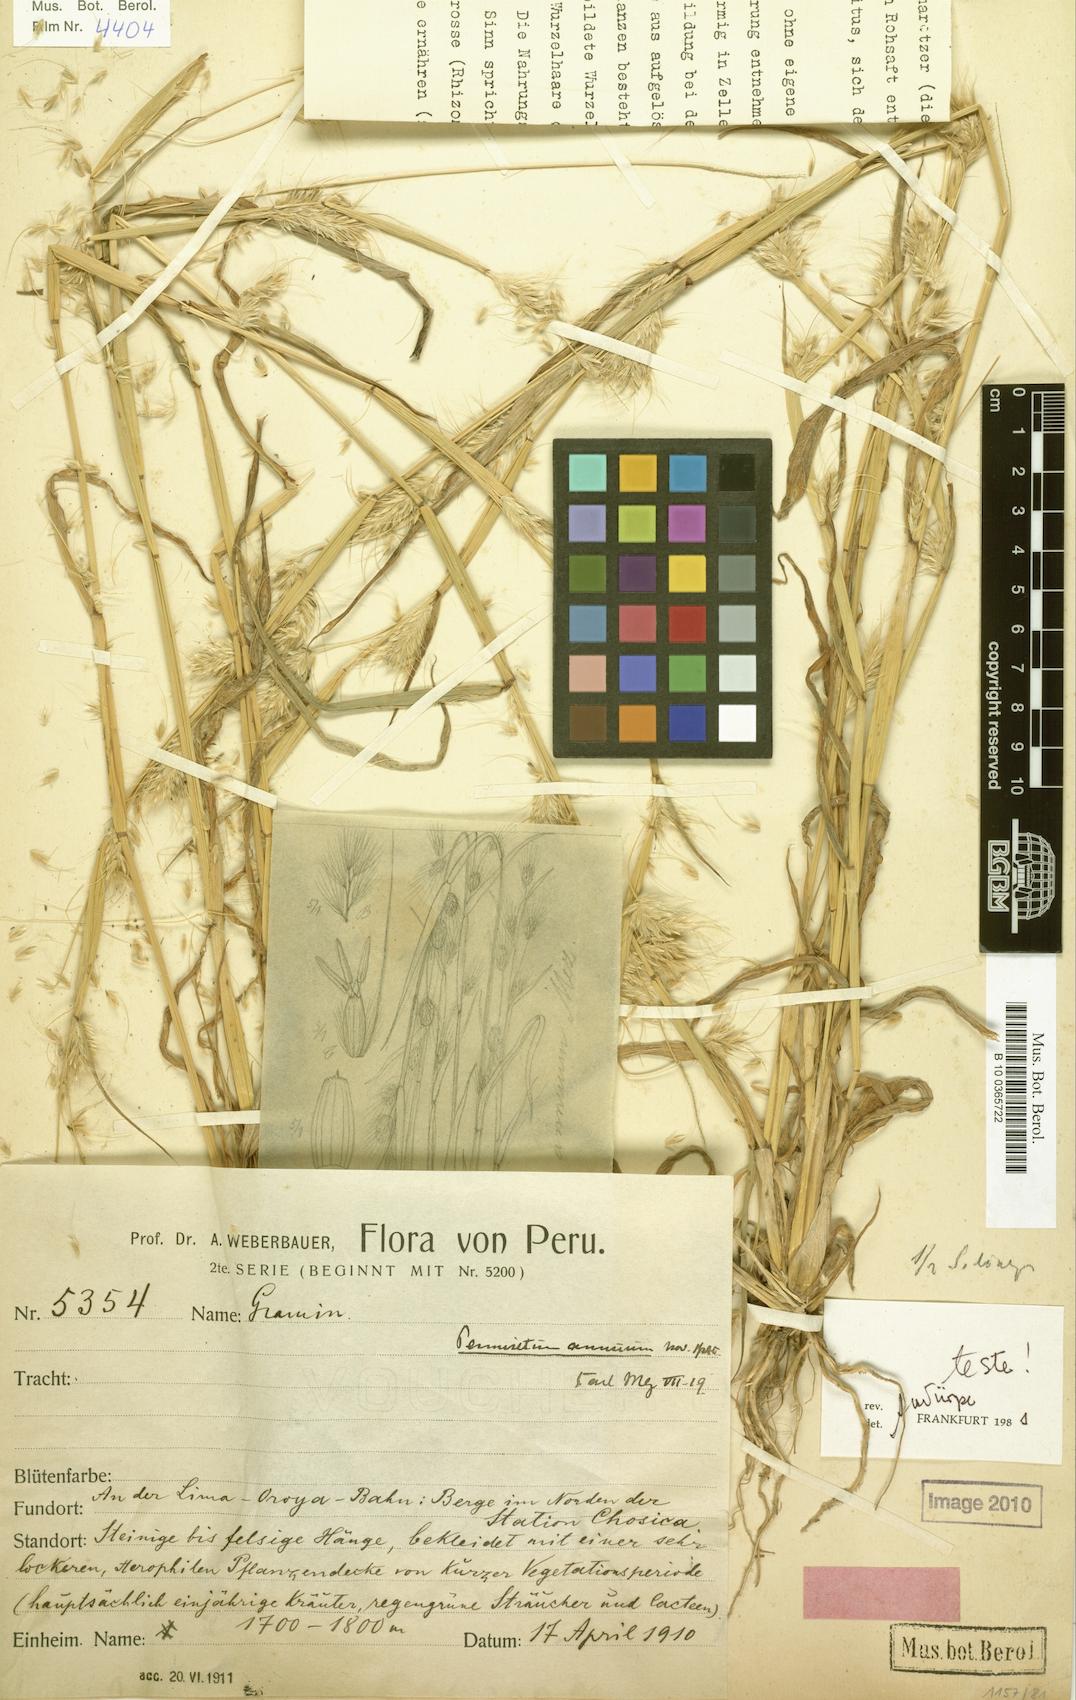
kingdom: Plantae
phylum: Tracheophyta
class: Liliopsida
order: Poales
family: Poaceae
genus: Cenchrus
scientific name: Cenchrus annuus
